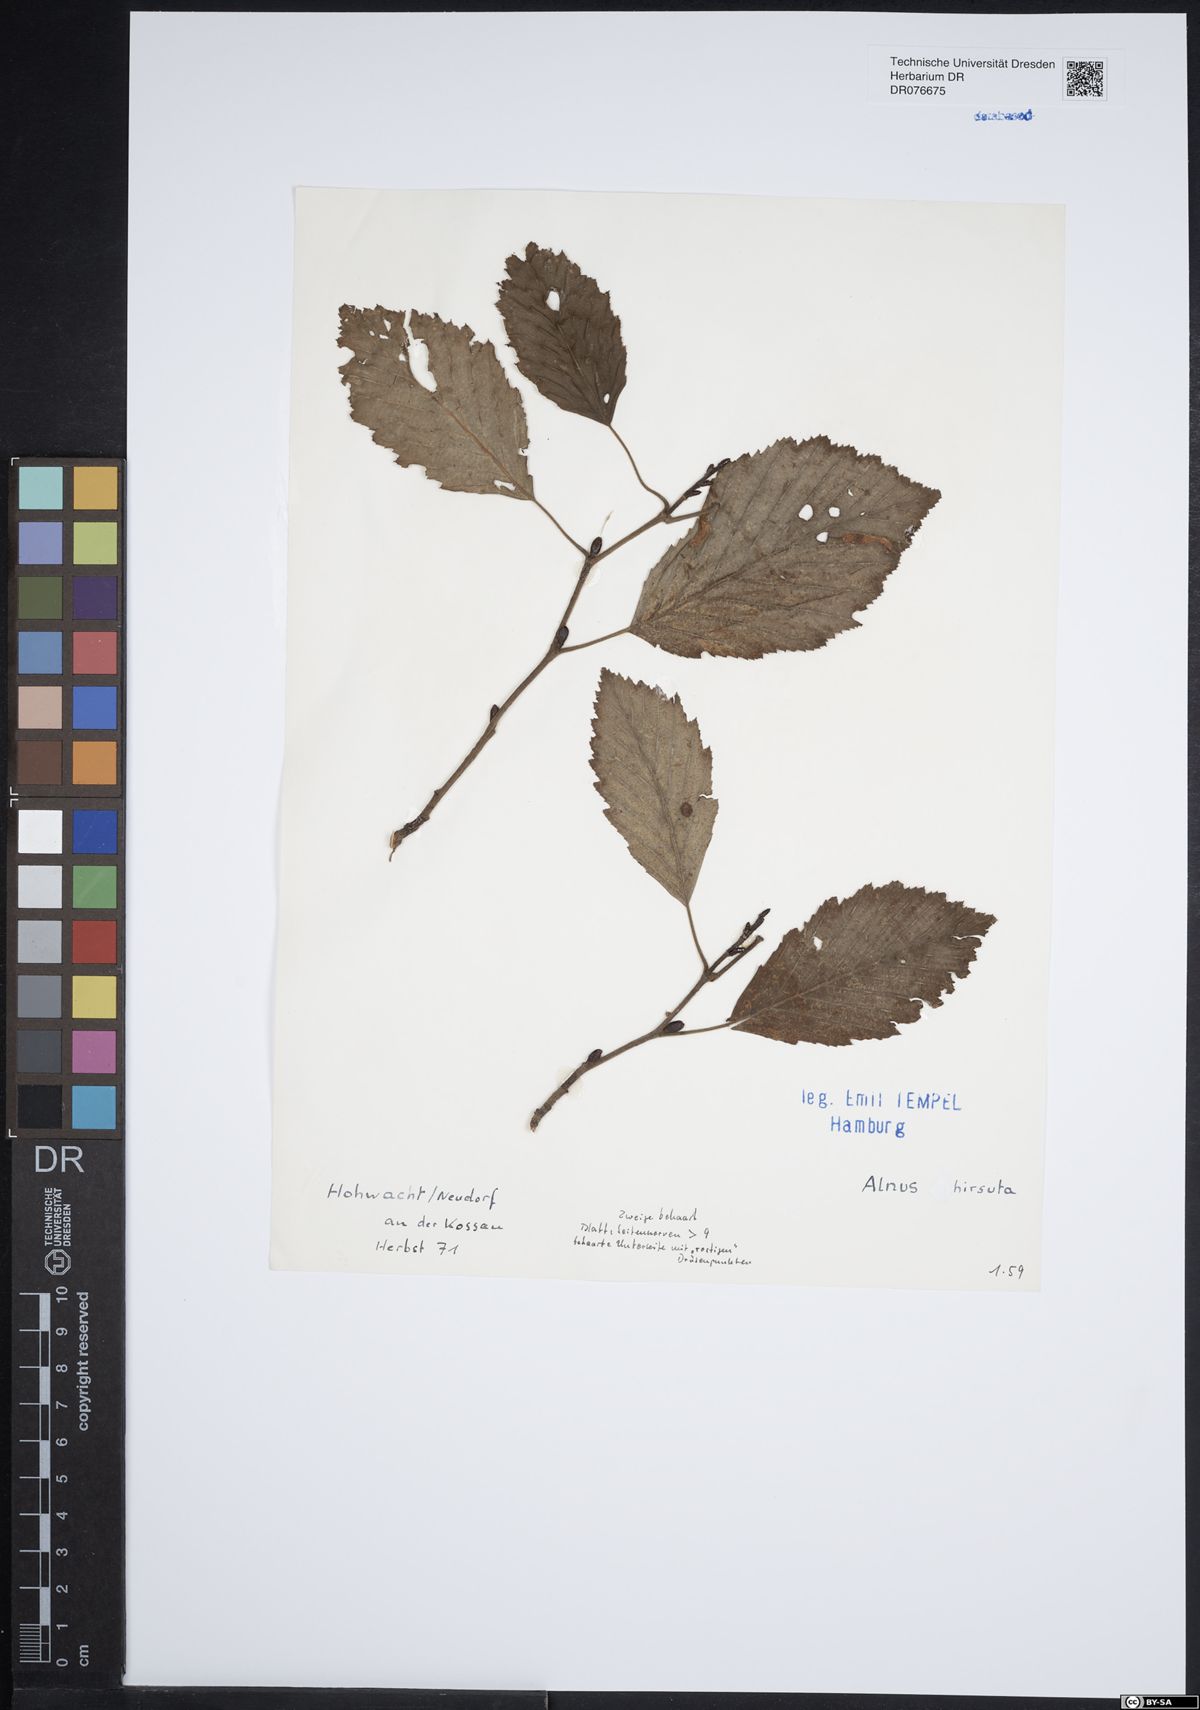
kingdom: Plantae
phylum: Tracheophyta
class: Magnoliopsida
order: Fagales
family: Betulaceae
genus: Alnus
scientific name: Alnus hirsuta
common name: Manchurian alder
